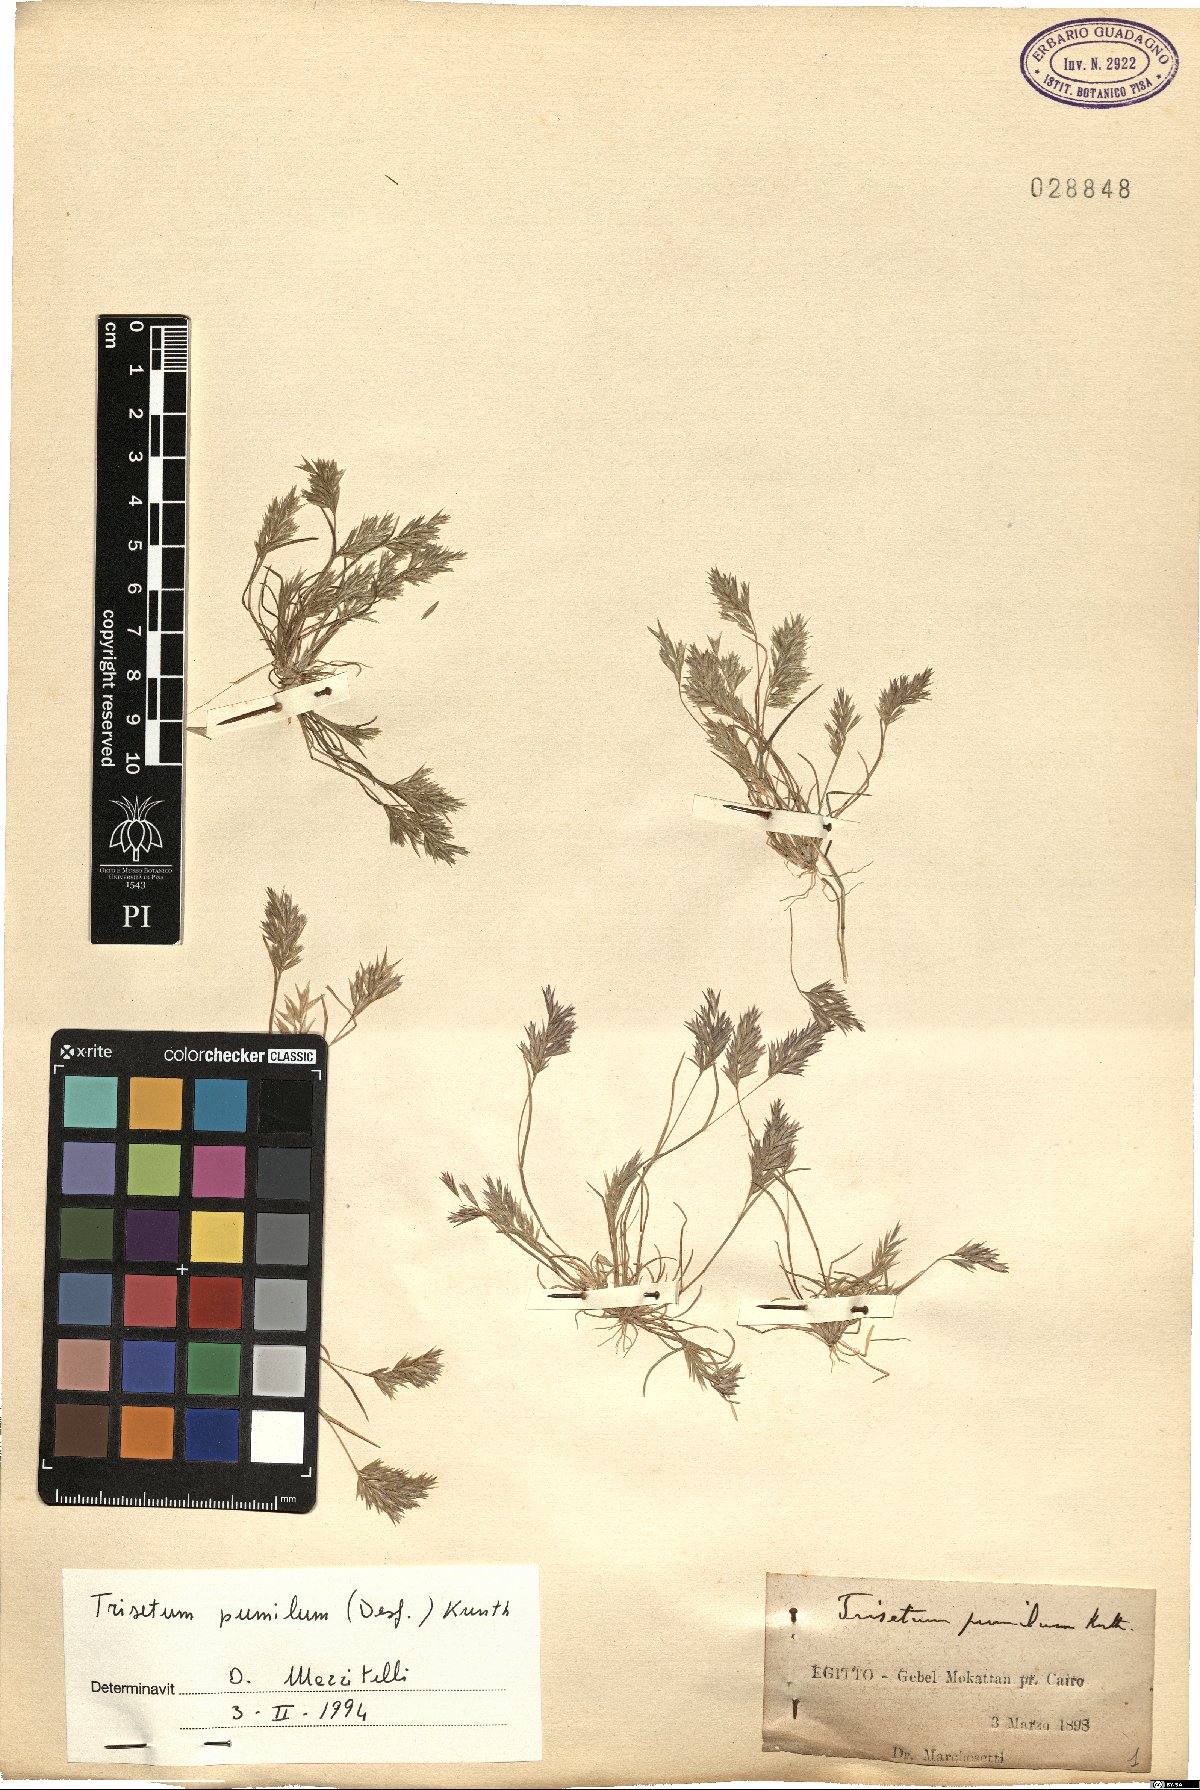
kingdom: Plantae
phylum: Tracheophyta
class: Liliopsida
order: Poales
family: Poaceae
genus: Rostraria
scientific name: Rostraria pumila
